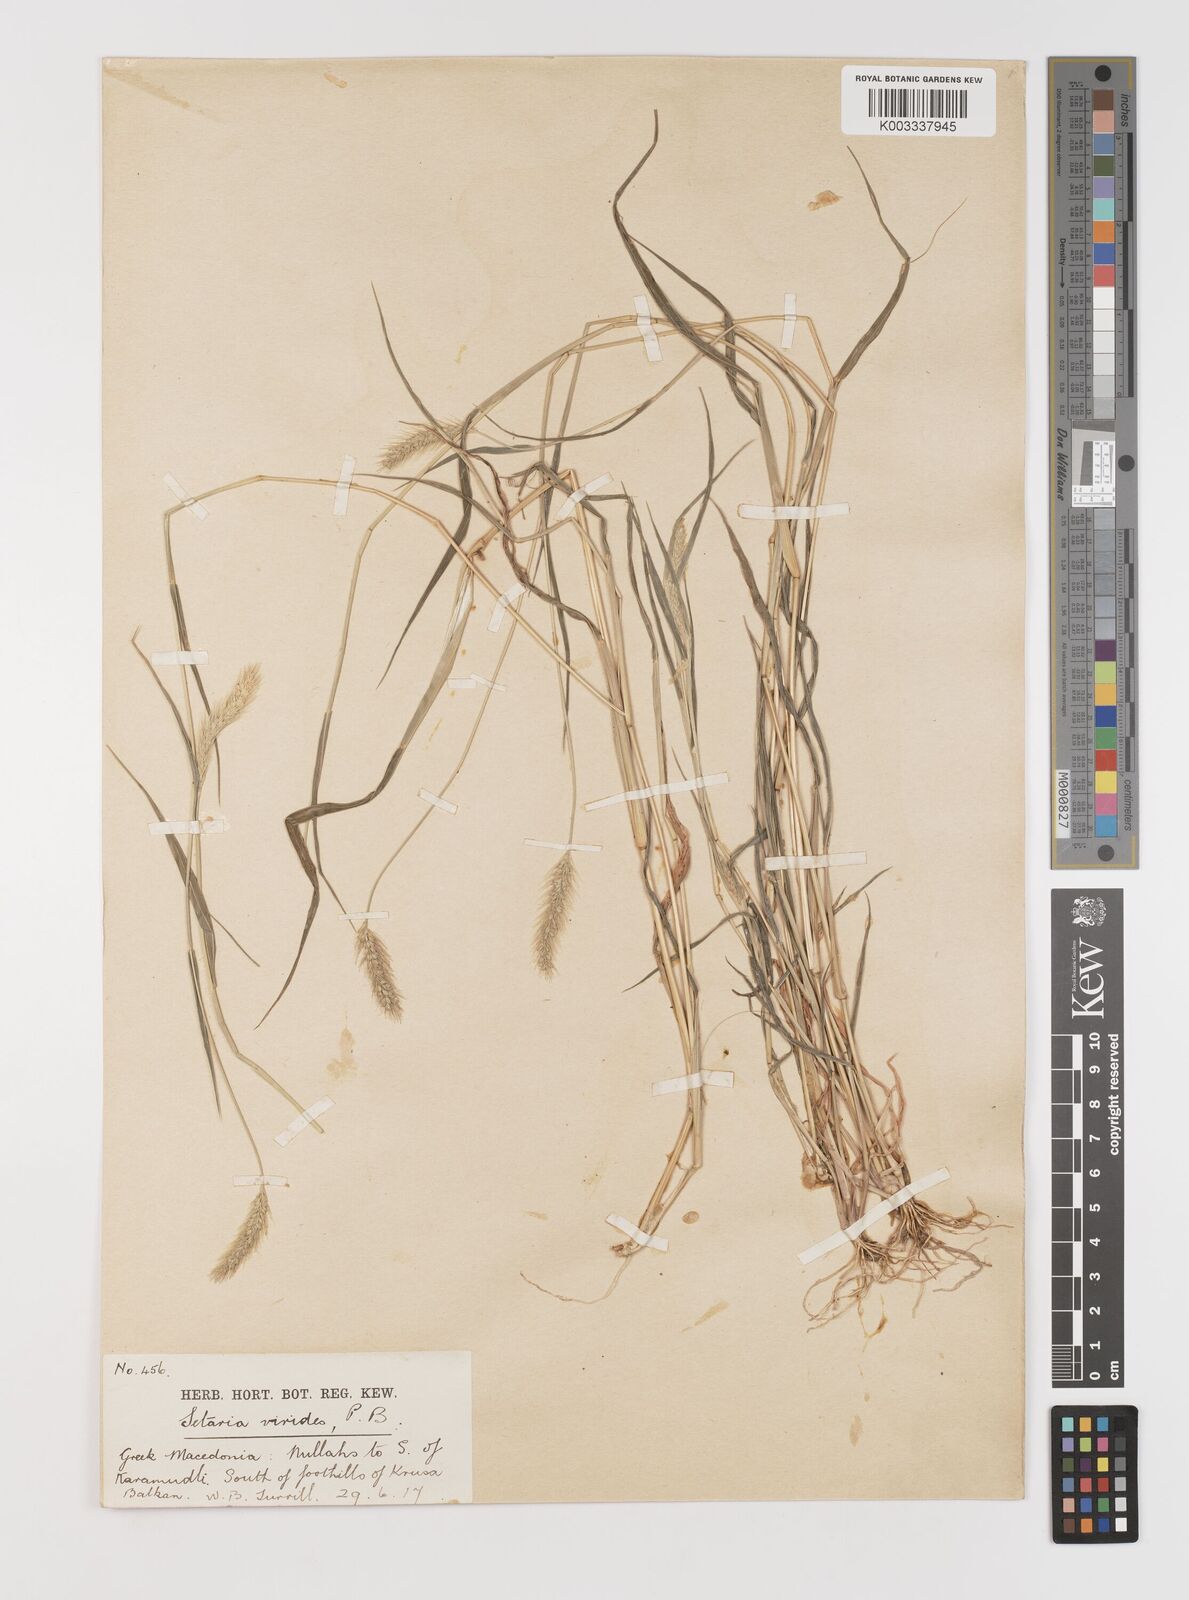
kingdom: Plantae
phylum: Tracheophyta
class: Liliopsida
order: Poales
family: Poaceae
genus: Setaria
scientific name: Setaria viridis
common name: Green bristlegrass
